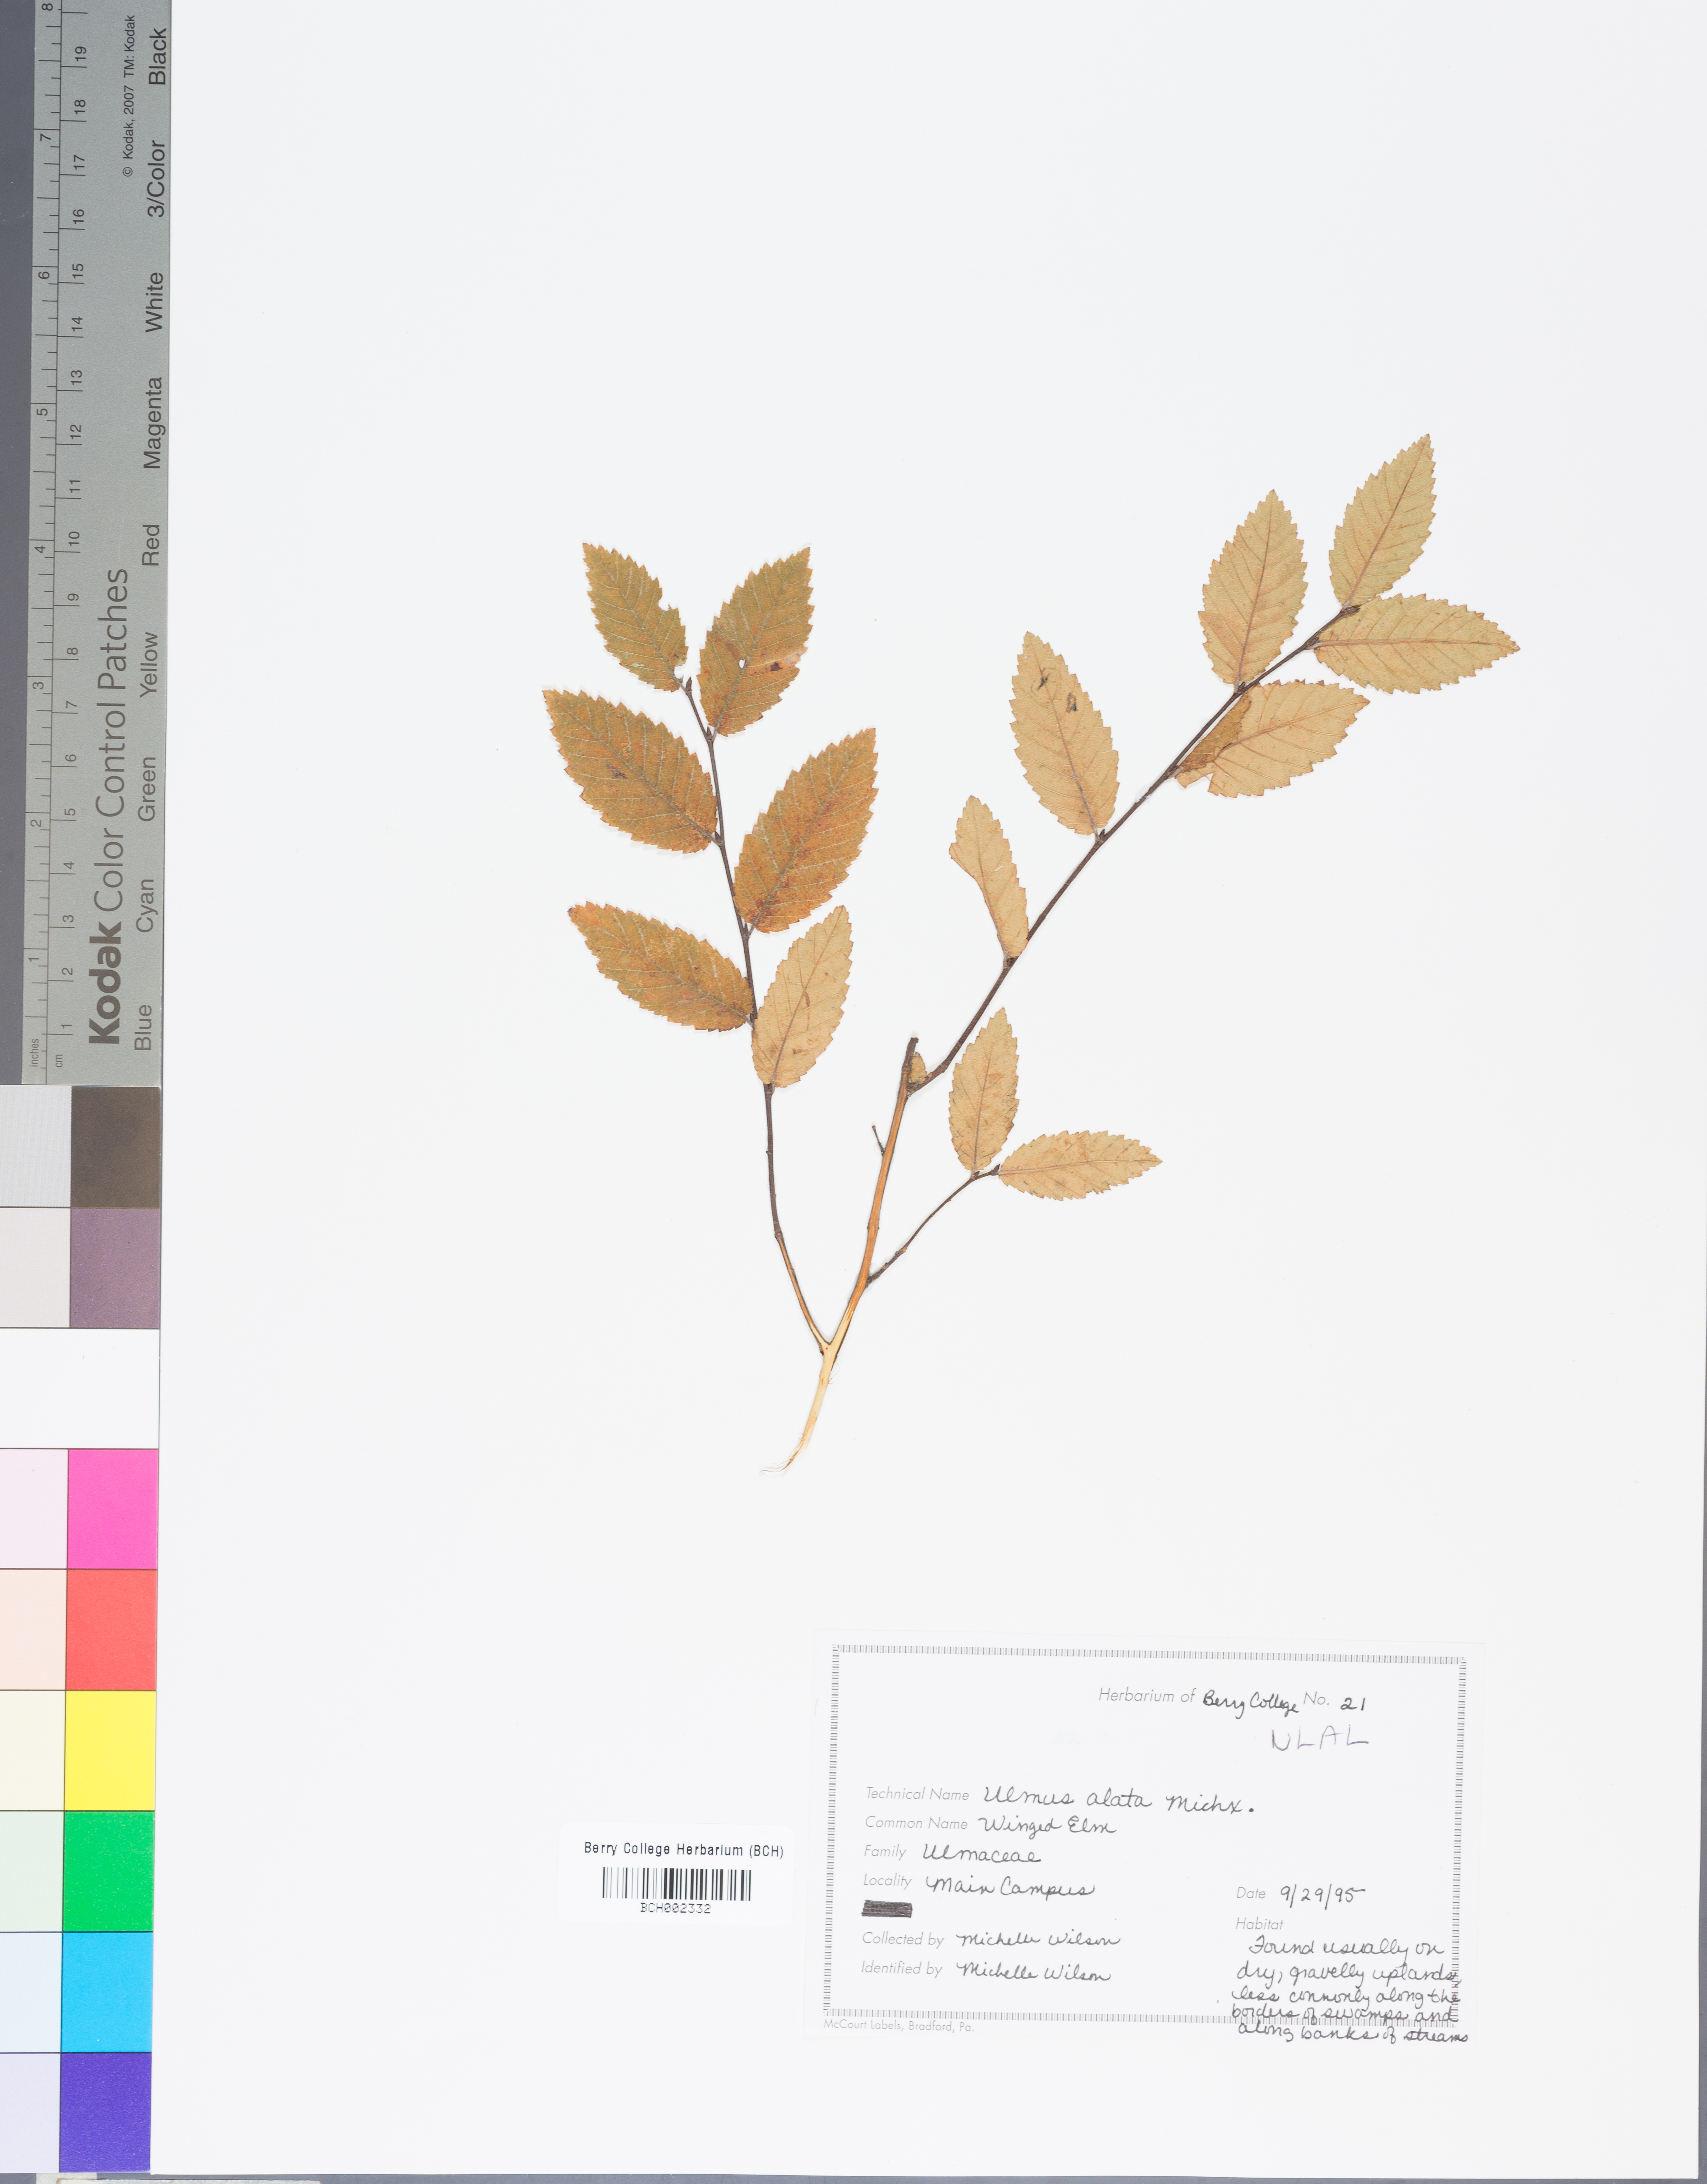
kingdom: Plantae
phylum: Tracheophyta
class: Magnoliopsida
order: Rosales
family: Ulmaceae
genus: Ulmus
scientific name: Ulmus alata
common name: Winged elm
